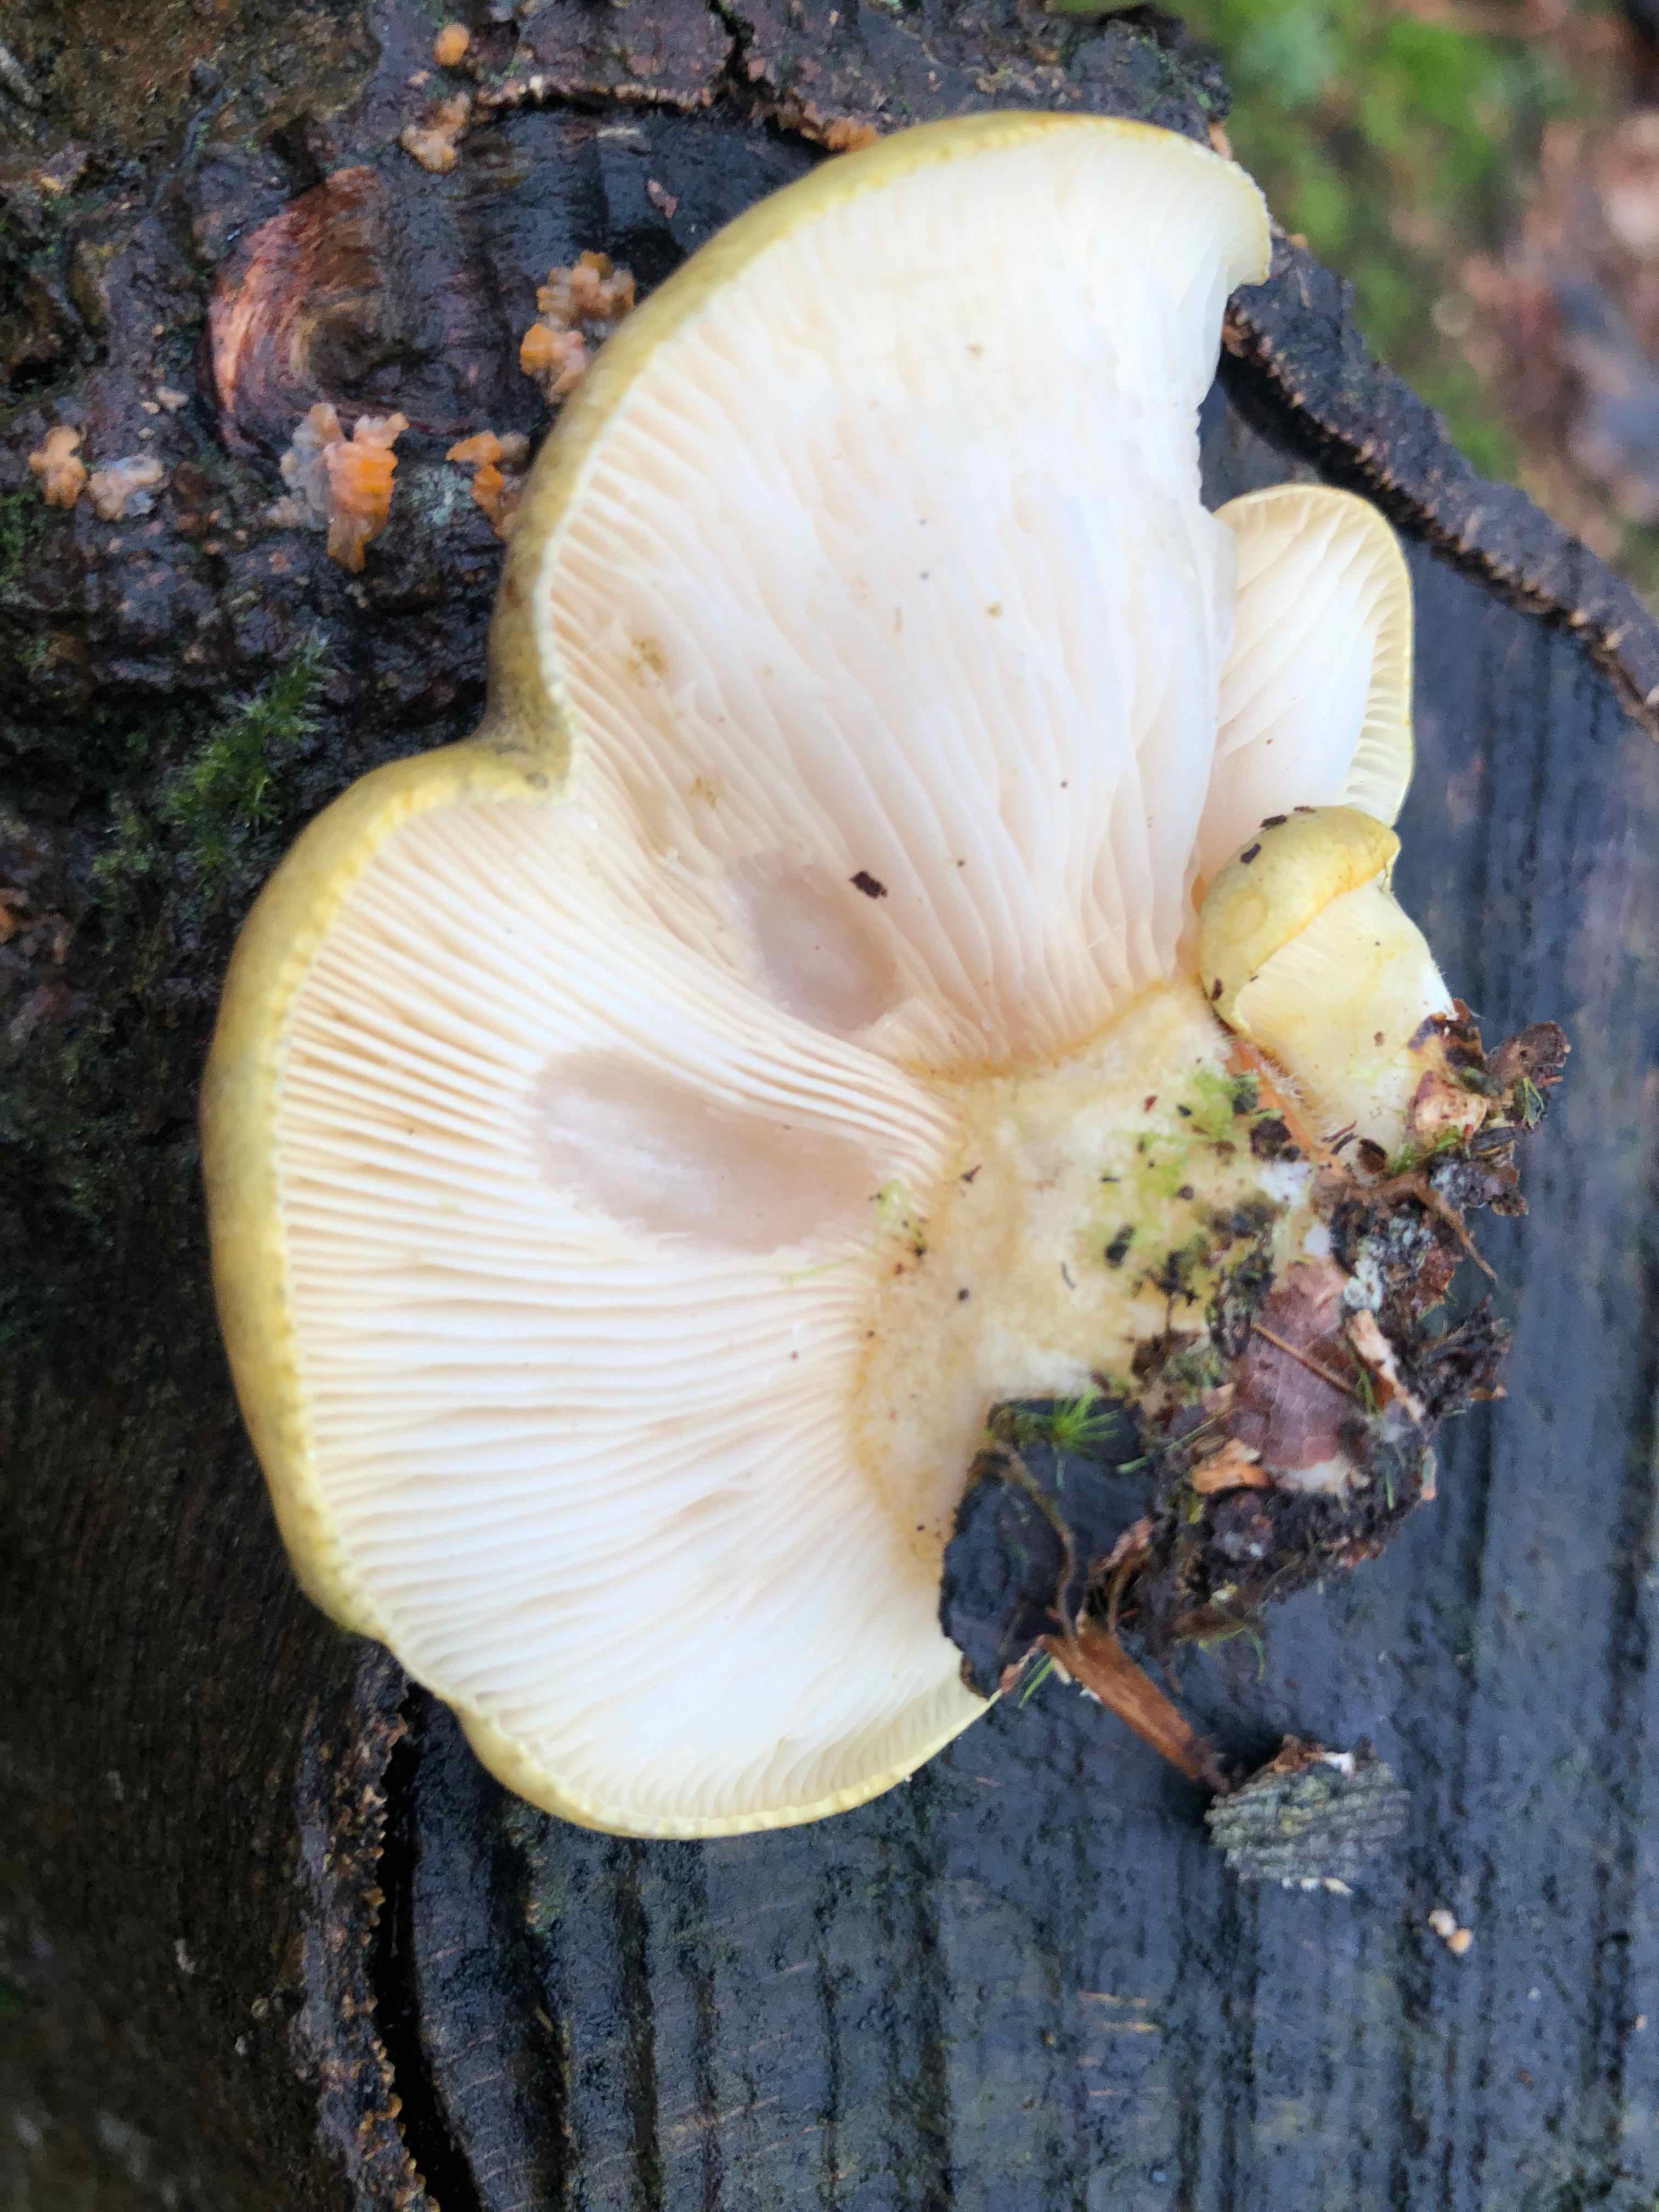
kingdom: Fungi
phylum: Basidiomycota
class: Agaricomycetes
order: Agaricales
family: Sarcomyxaceae
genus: Sarcomyxa
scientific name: Sarcomyxa serotina
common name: gummihat
